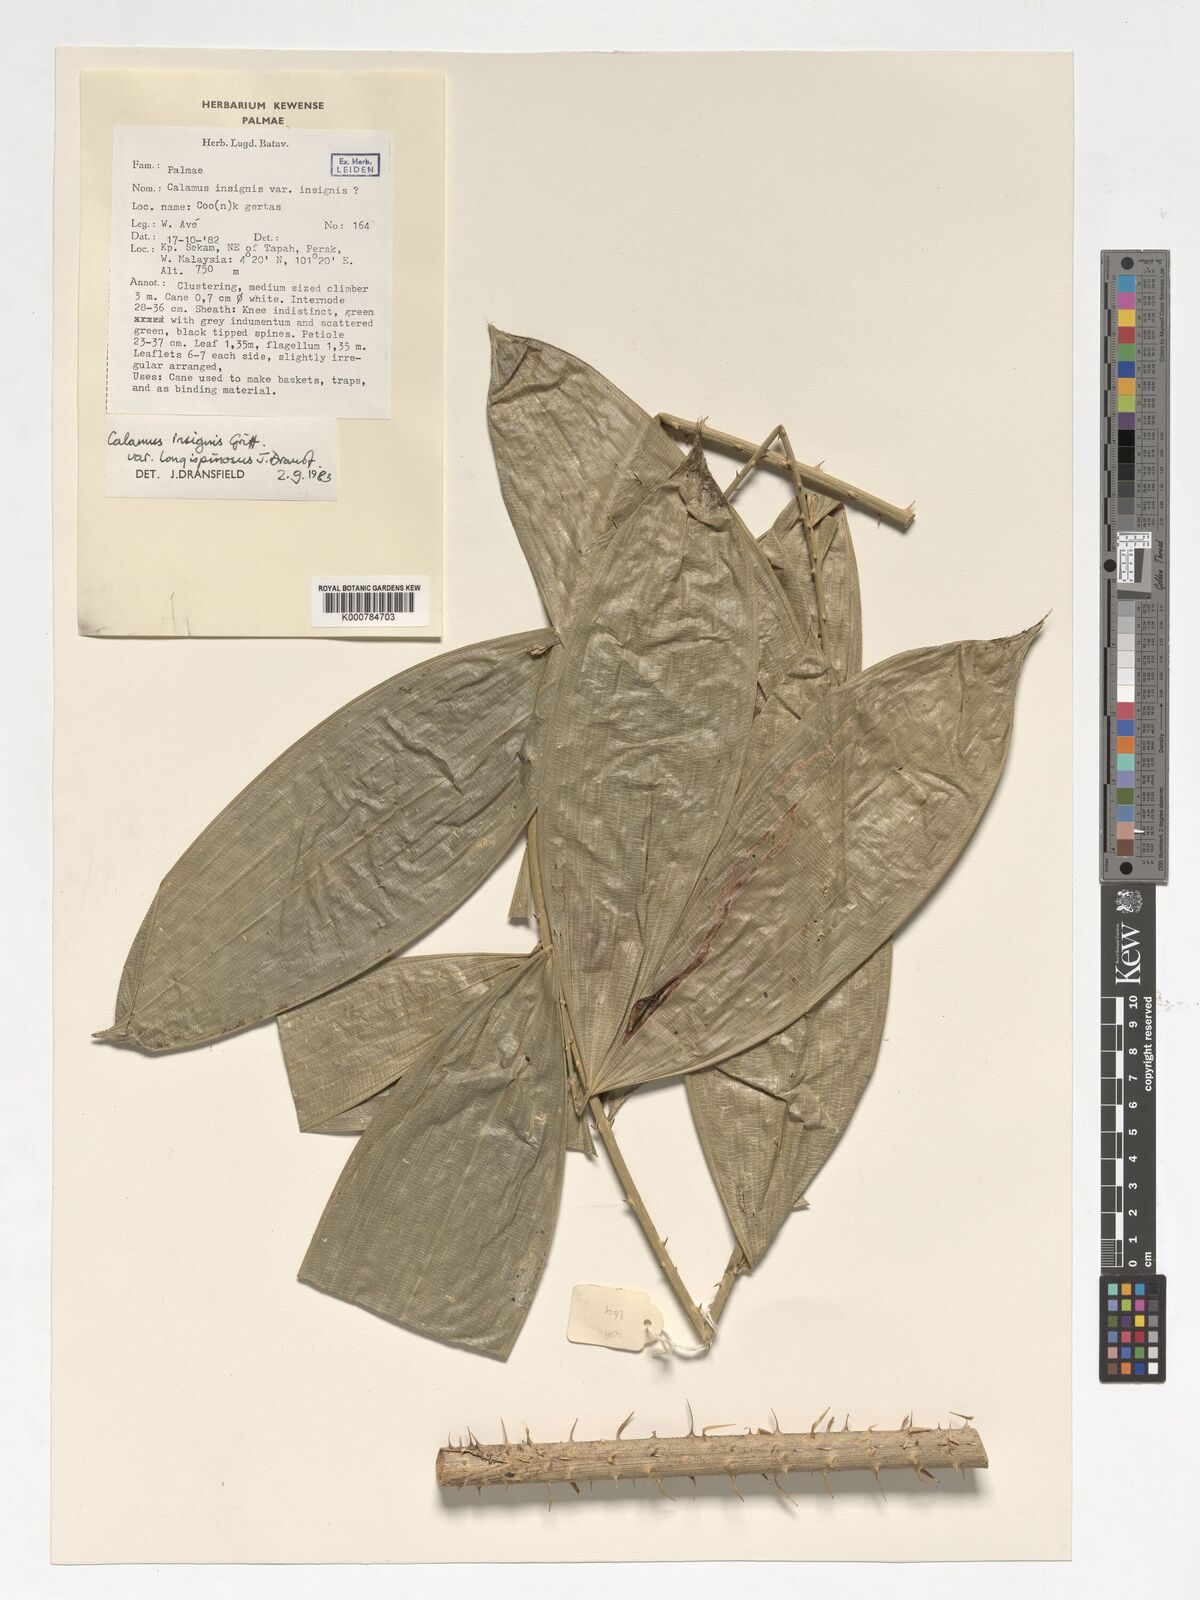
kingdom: Plantae
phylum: Tracheophyta
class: Liliopsida
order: Arecales
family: Arecaceae
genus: Calamus
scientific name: Calamus longiusculus
